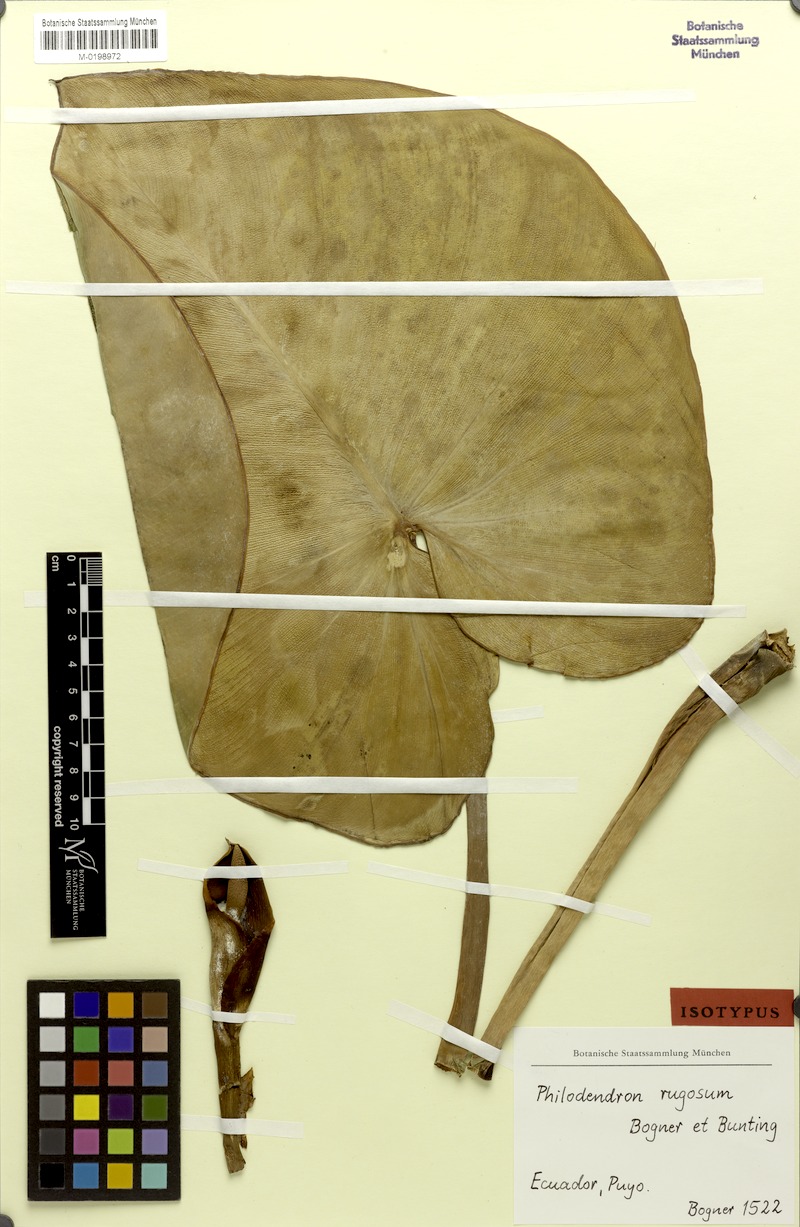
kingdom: Plantae
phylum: Tracheophyta
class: Liliopsida
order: Alismatales
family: Araceae
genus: Philodendron
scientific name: Philodendron rugosum
